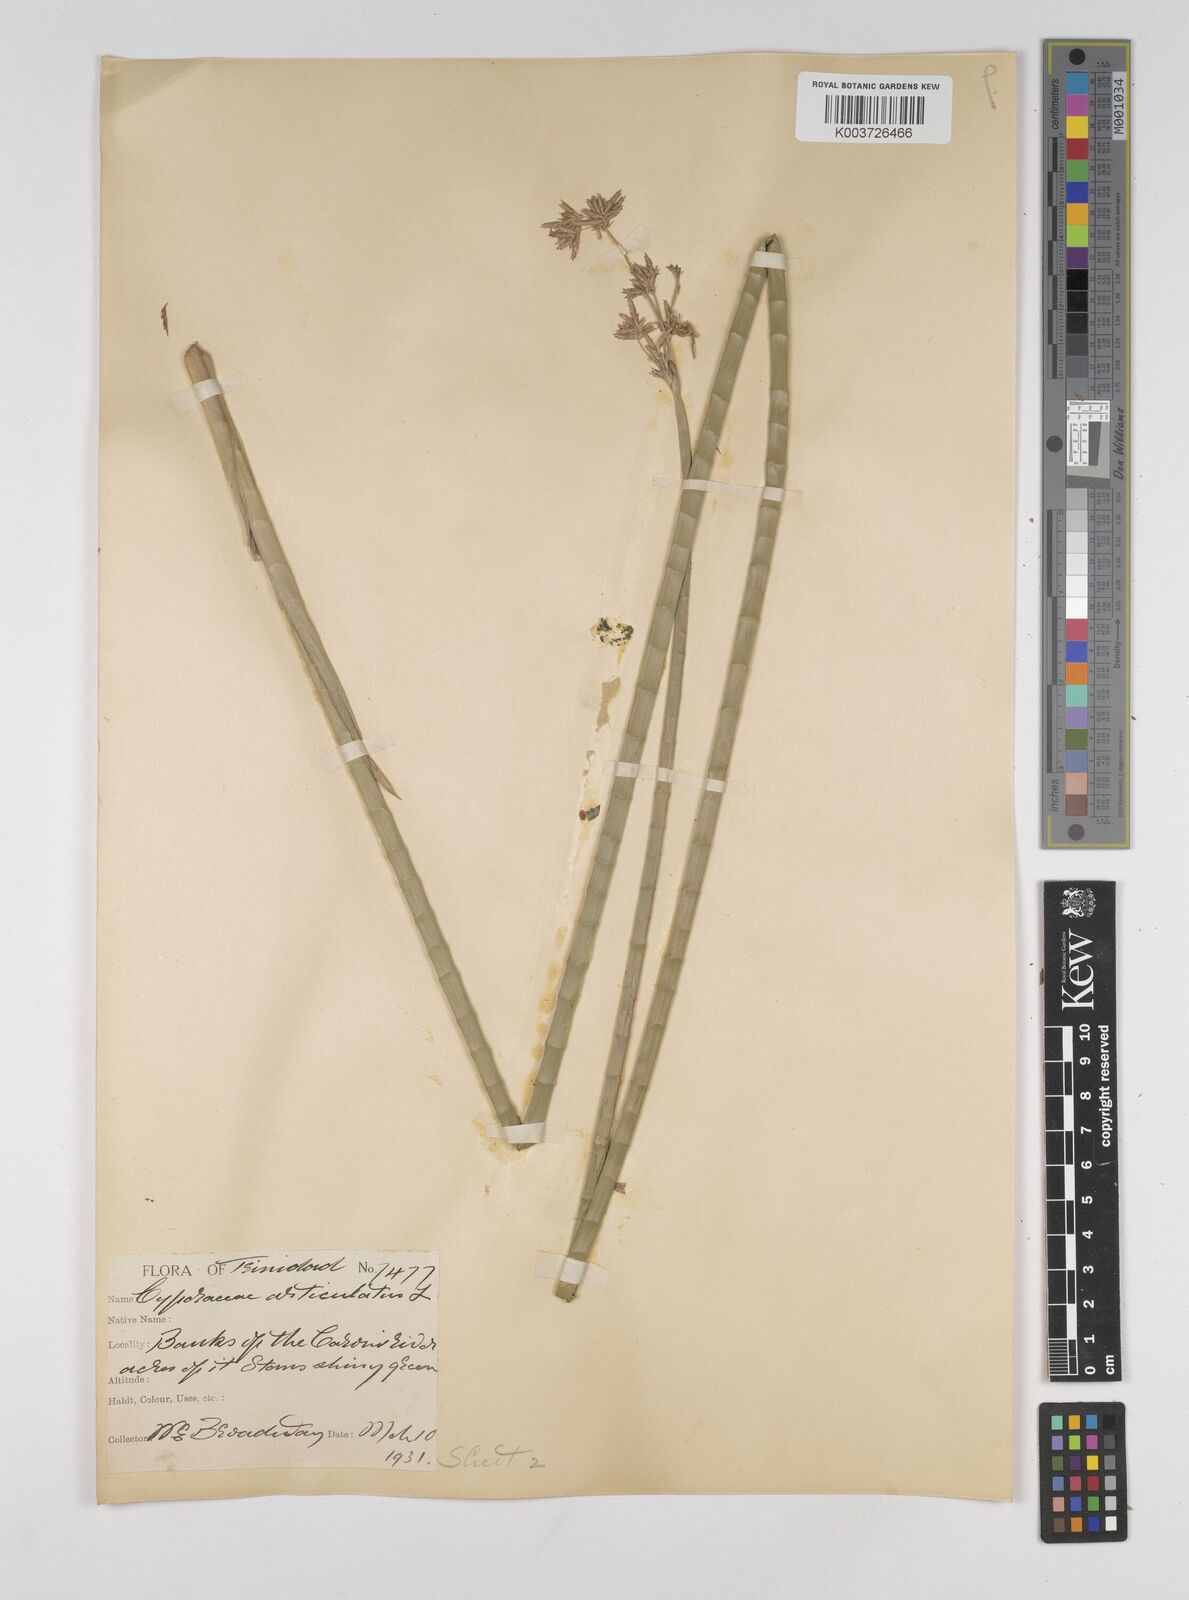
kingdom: Plantae
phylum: Tracheophyta
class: Liliopsida
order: Poales
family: Cyperaceae
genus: Cyperus
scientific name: Cyperus articulatus
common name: Jointed flatsedge
